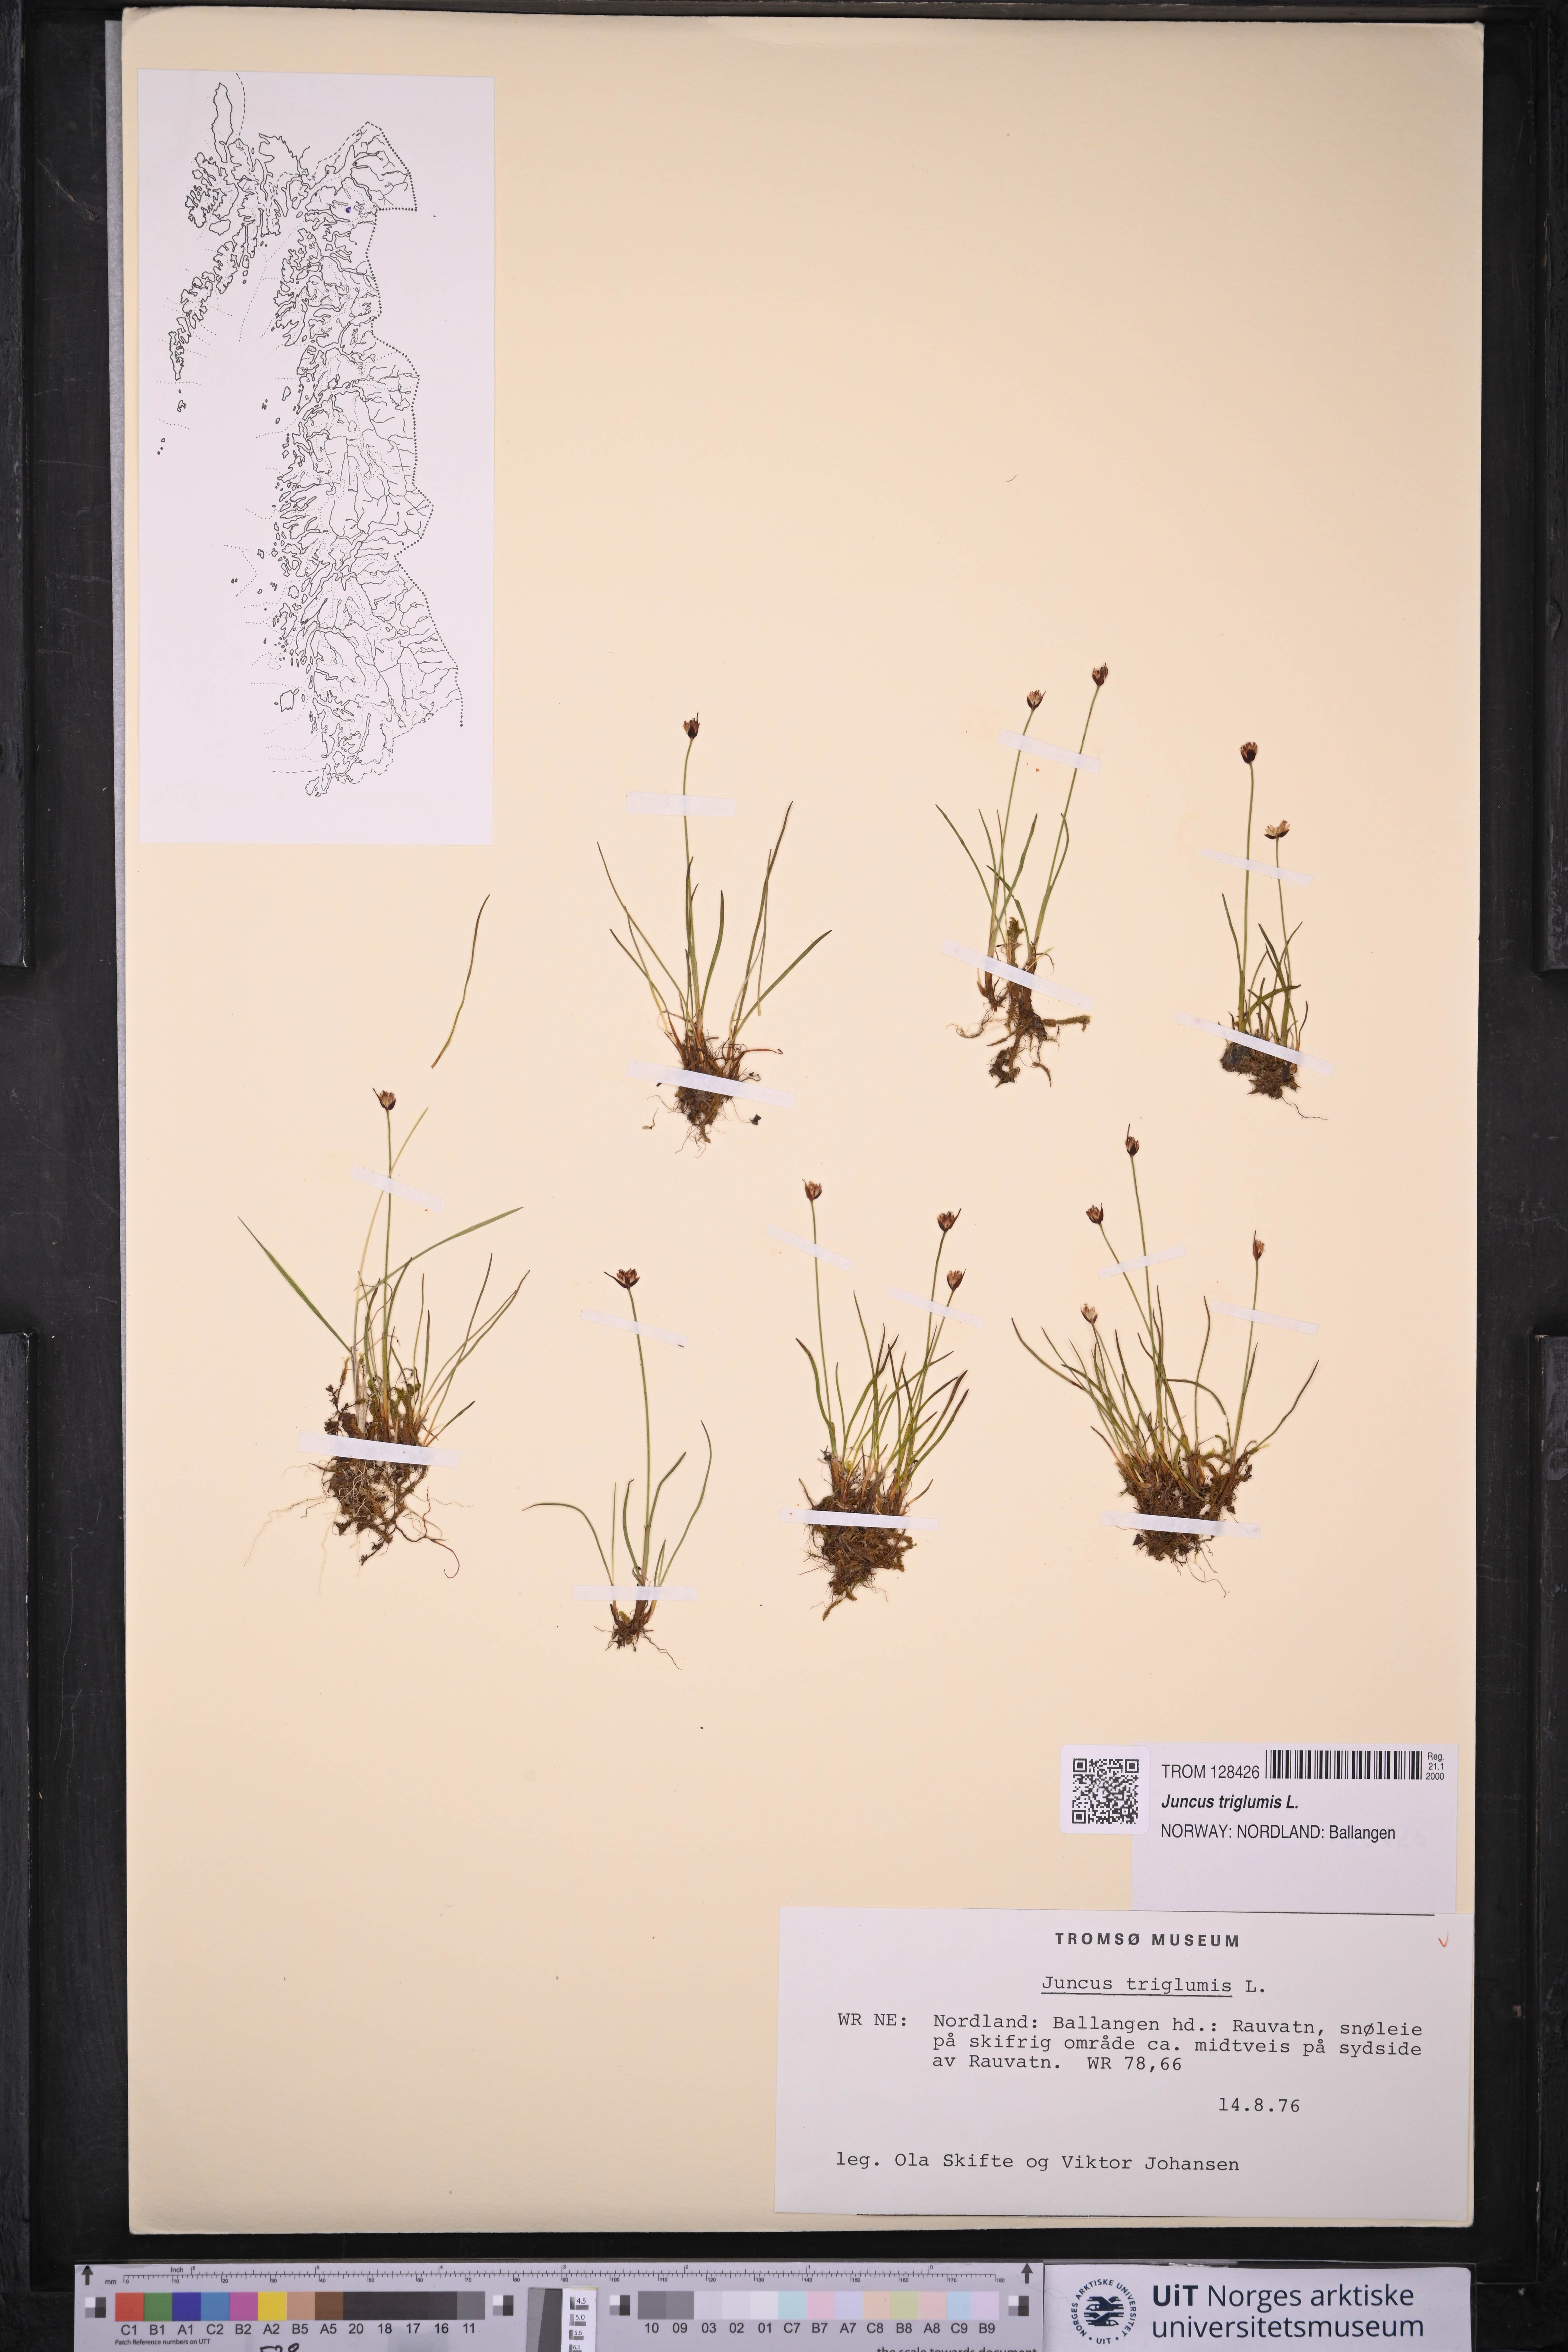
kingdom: Plantae
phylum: Tracheophyta
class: Liliopsida
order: Poales
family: Juncaceae
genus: Juncus
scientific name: Juncus triglumis
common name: Three-flowered rush
